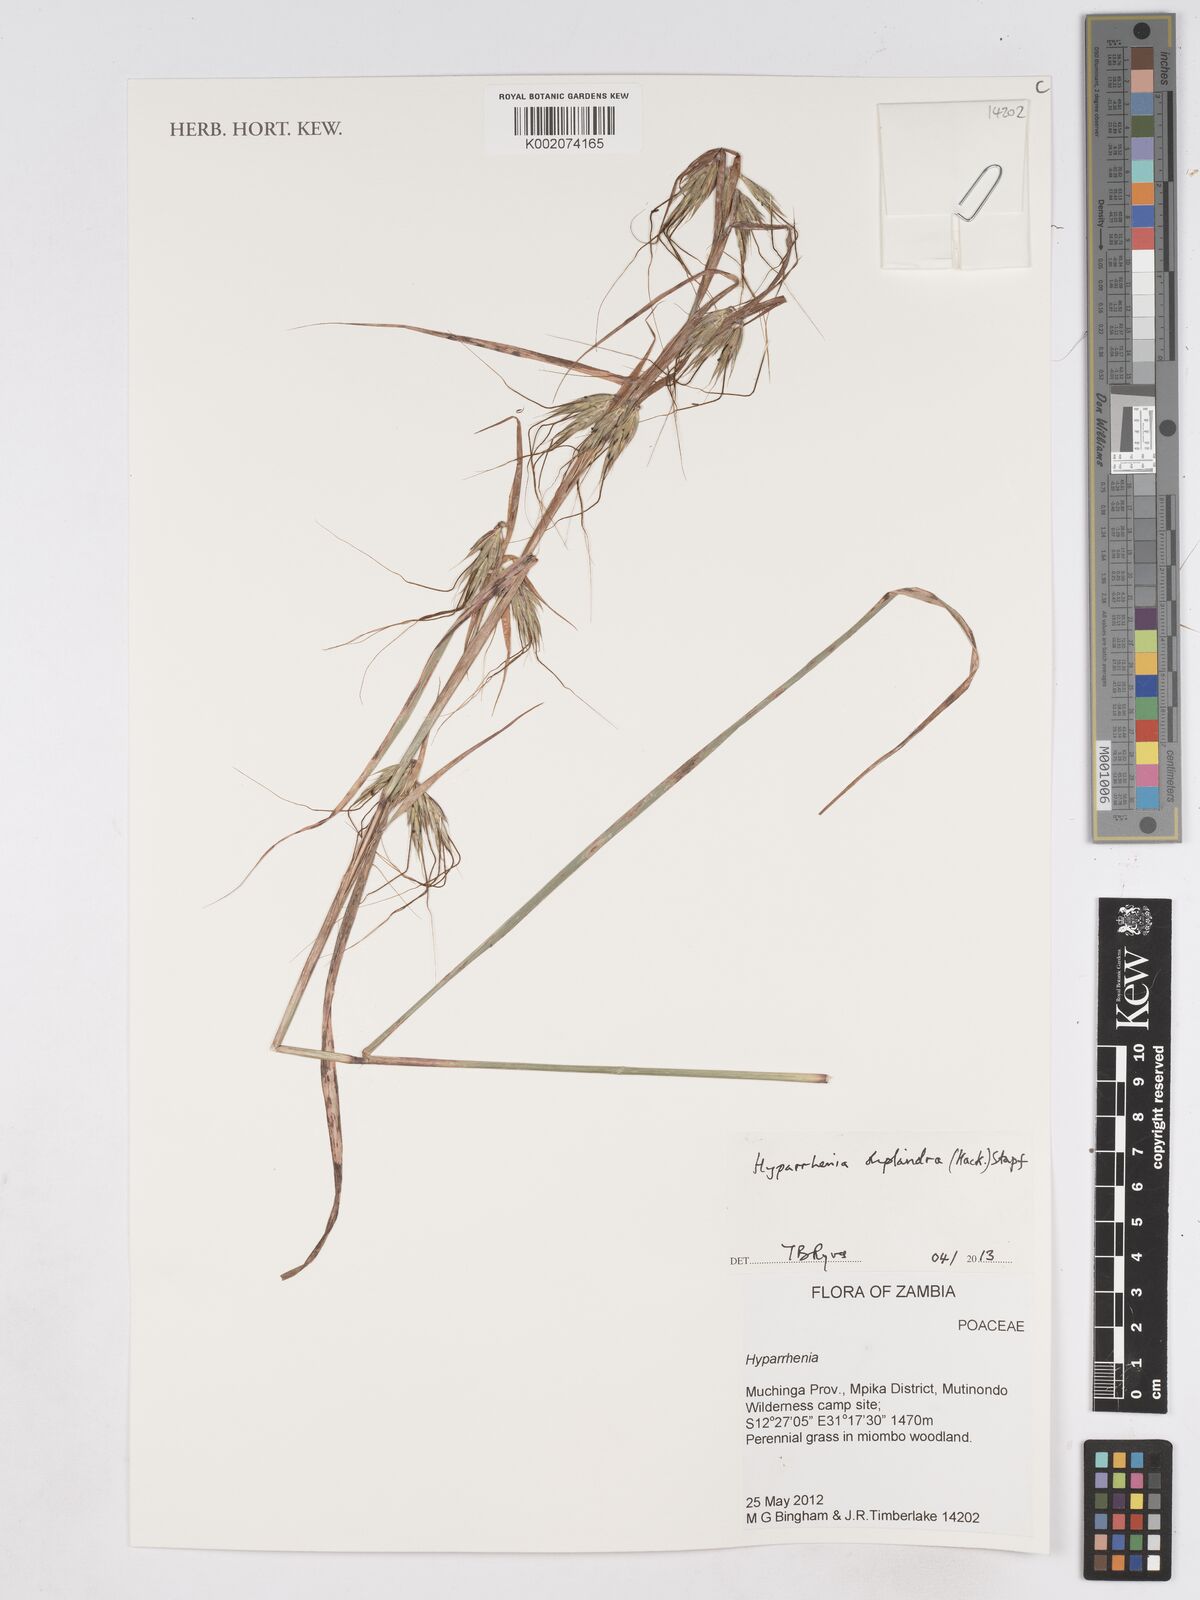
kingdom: Plantae
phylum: Tracheophyta
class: Liliopsida
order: Poales
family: Poaceae
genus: Hyparrhenia
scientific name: Hyparrhenia diplandra
